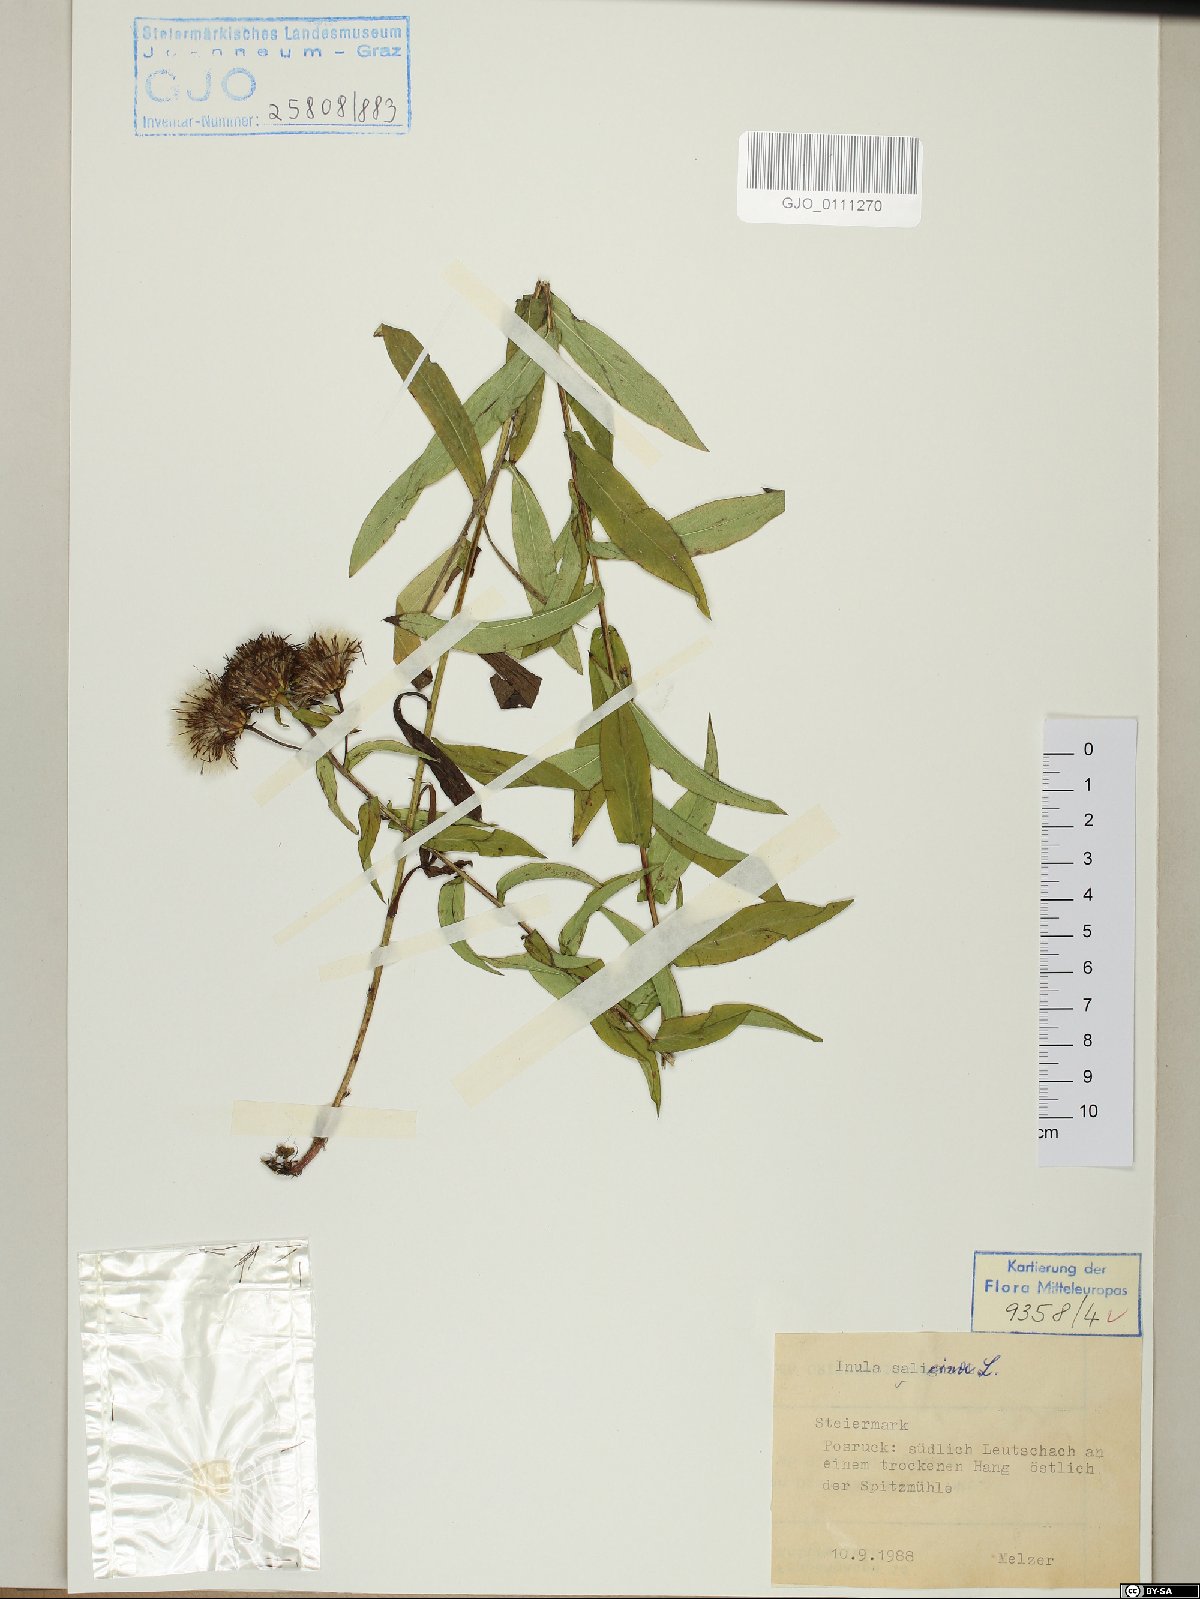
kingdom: Plantae
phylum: Tracheophyta
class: Magnoliopsida
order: Asterales
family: Asteraceae
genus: Pentanema
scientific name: Pentanema salicinum
